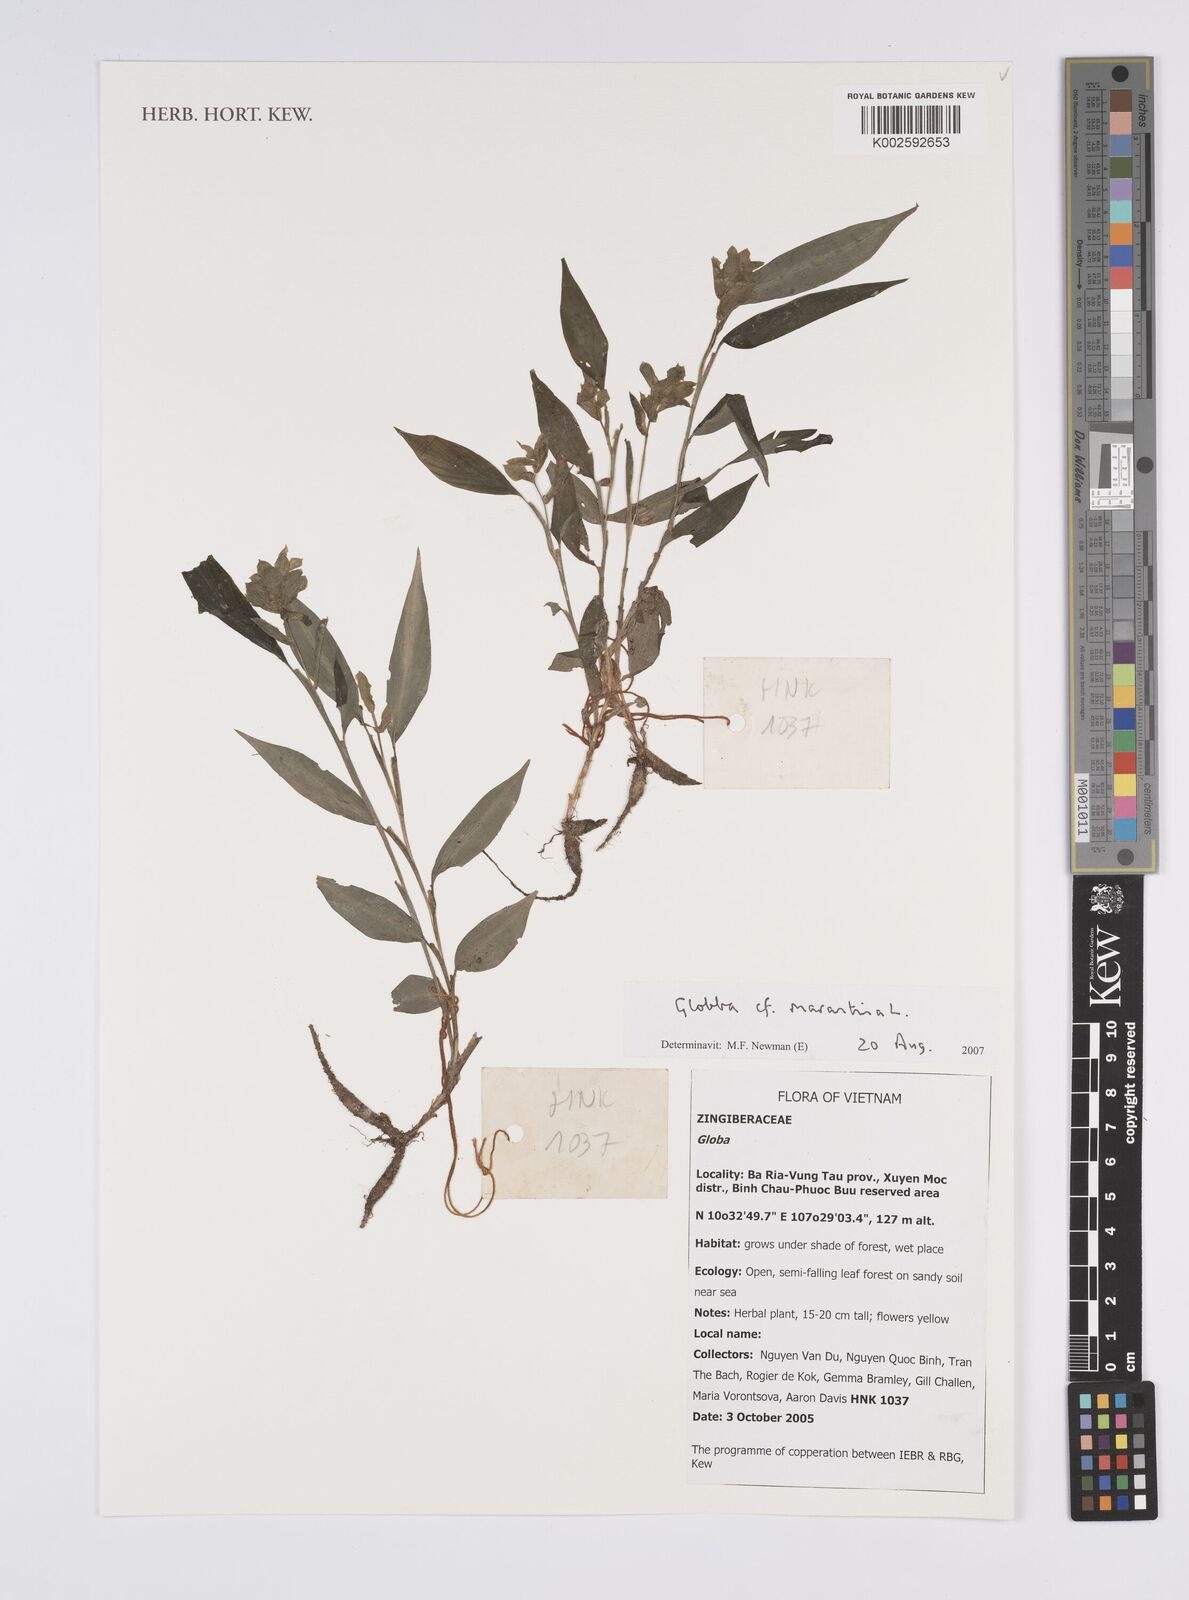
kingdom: Plantae
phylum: Tracheophyta
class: Liliopsida
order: Zingiberales
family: Zingiberaceae
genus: Globba
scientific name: Globba marantina
